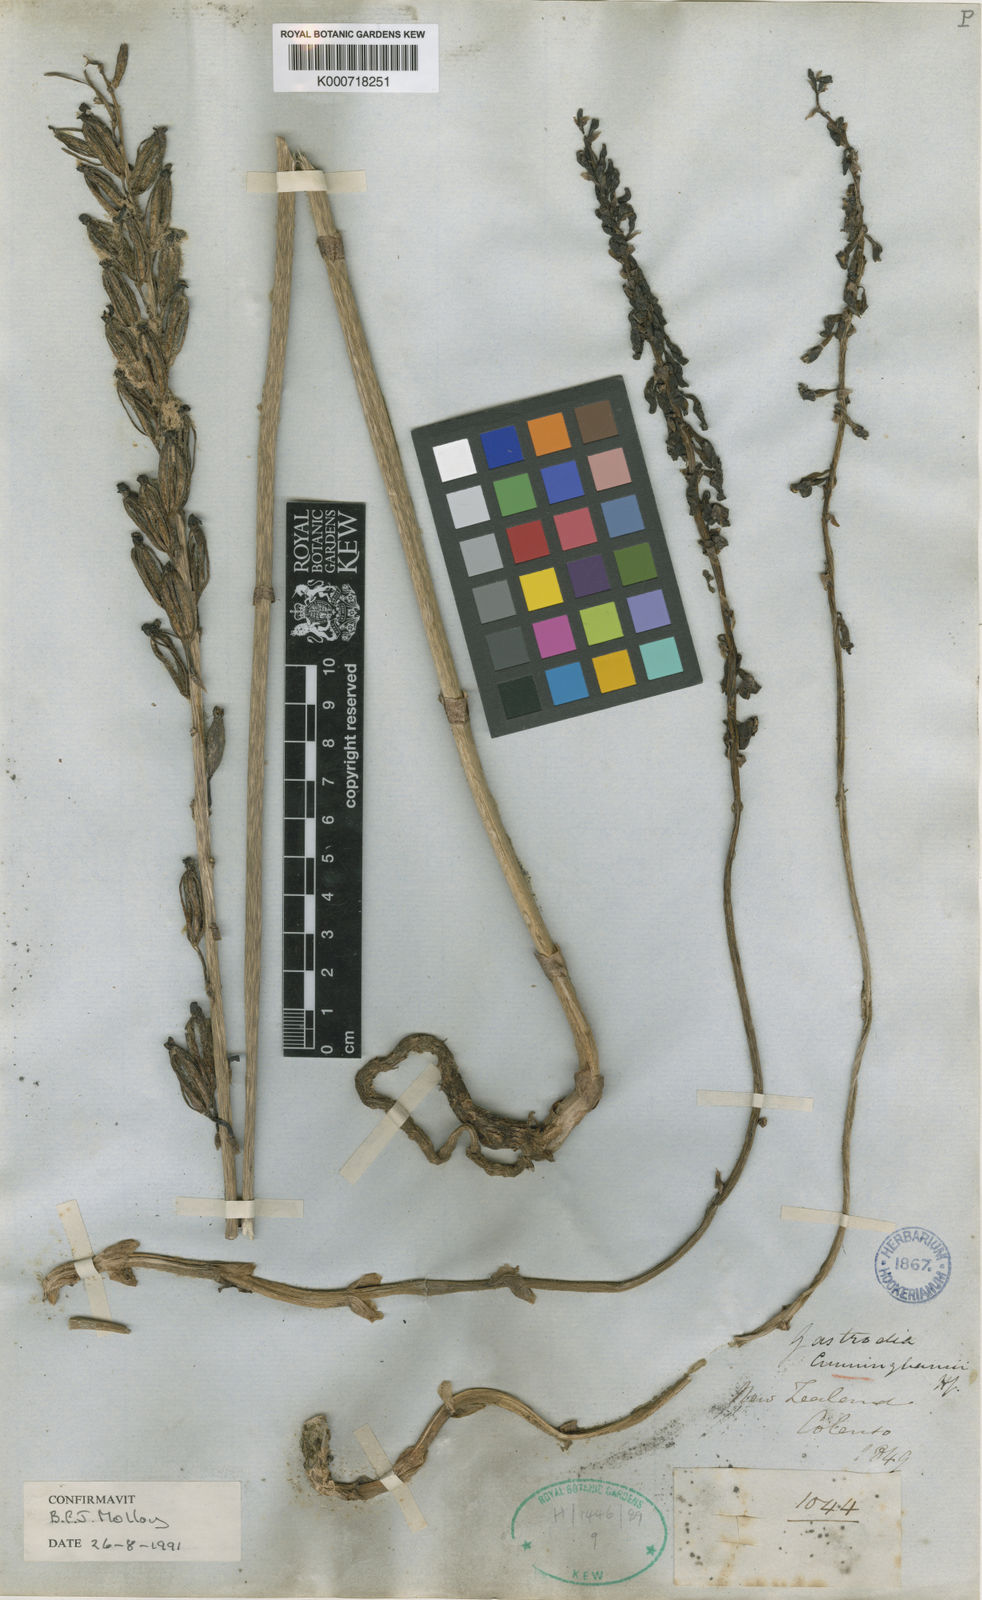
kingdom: Plantae
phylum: Tracheophyta
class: Liliopsida
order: Asparagales
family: Orchidaceae
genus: Gastrodia
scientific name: Gastrodia cunninghamii
